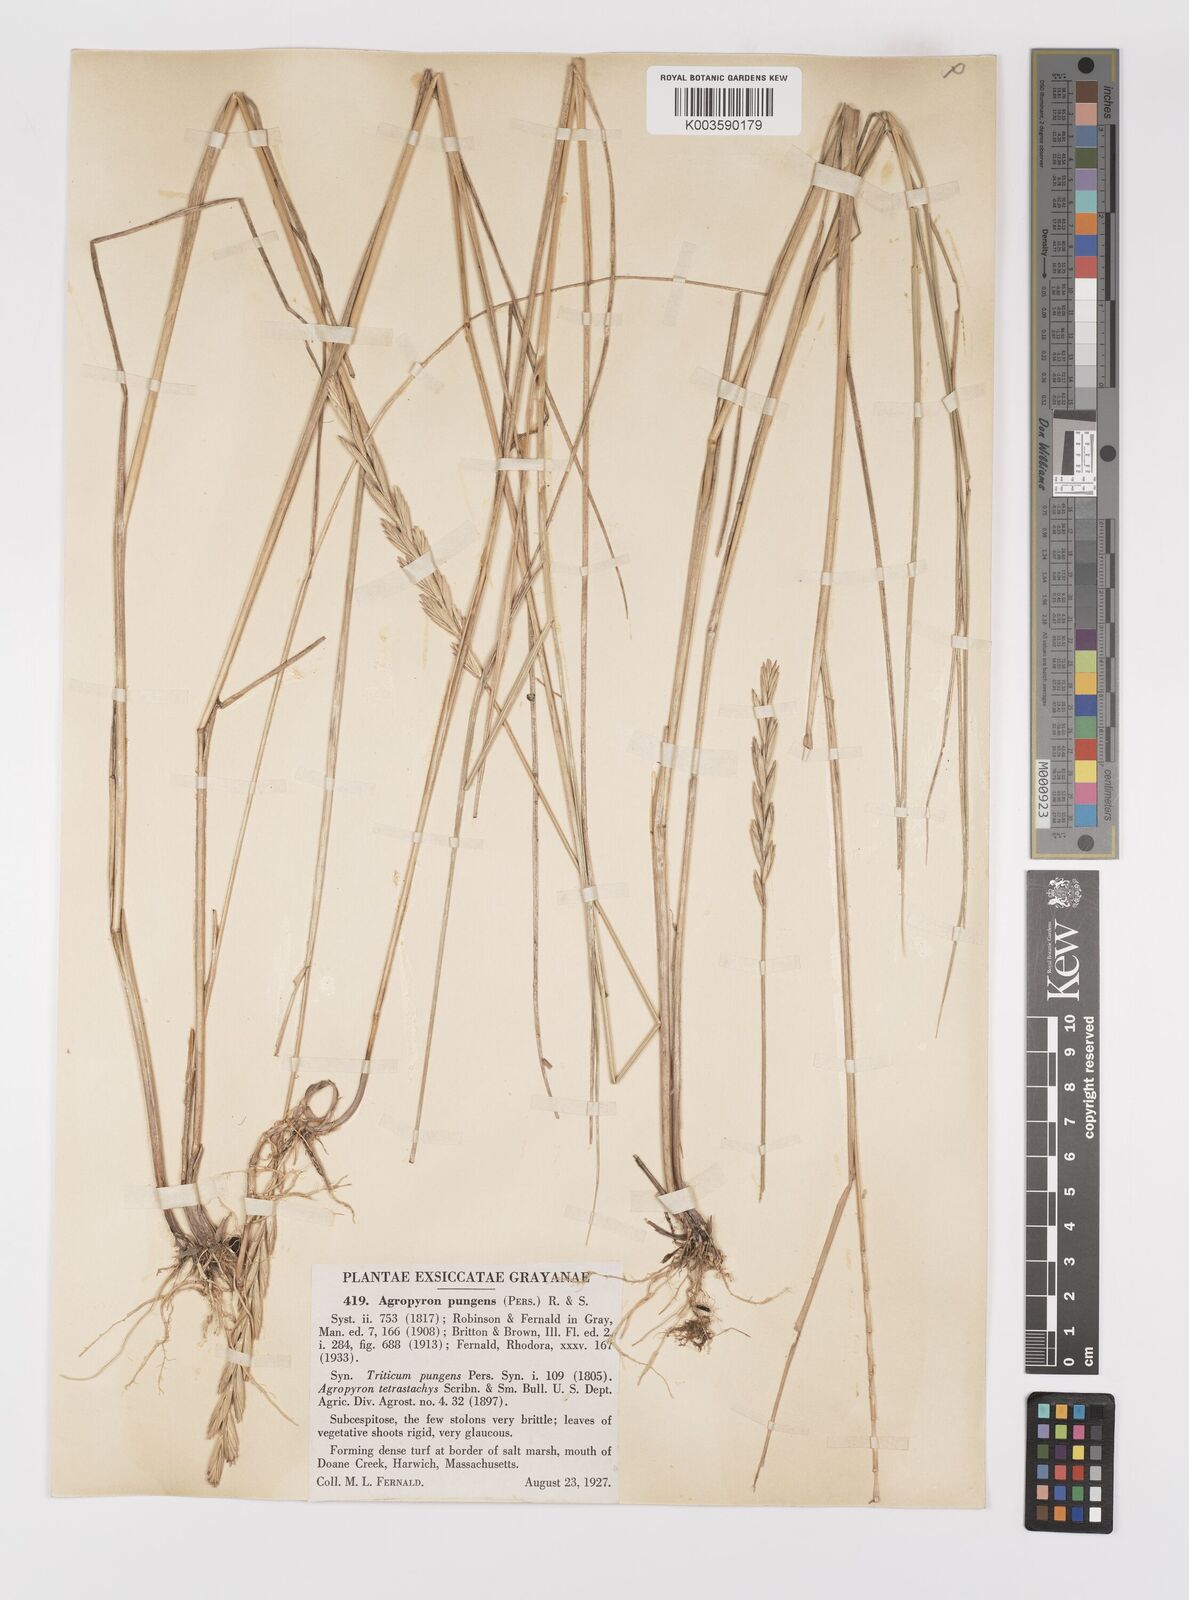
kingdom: Plantae
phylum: Tracheophyta
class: Liliopsida
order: Poales
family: Poaceae
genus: Elymus
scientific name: Elymus pungens
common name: Sea couch
